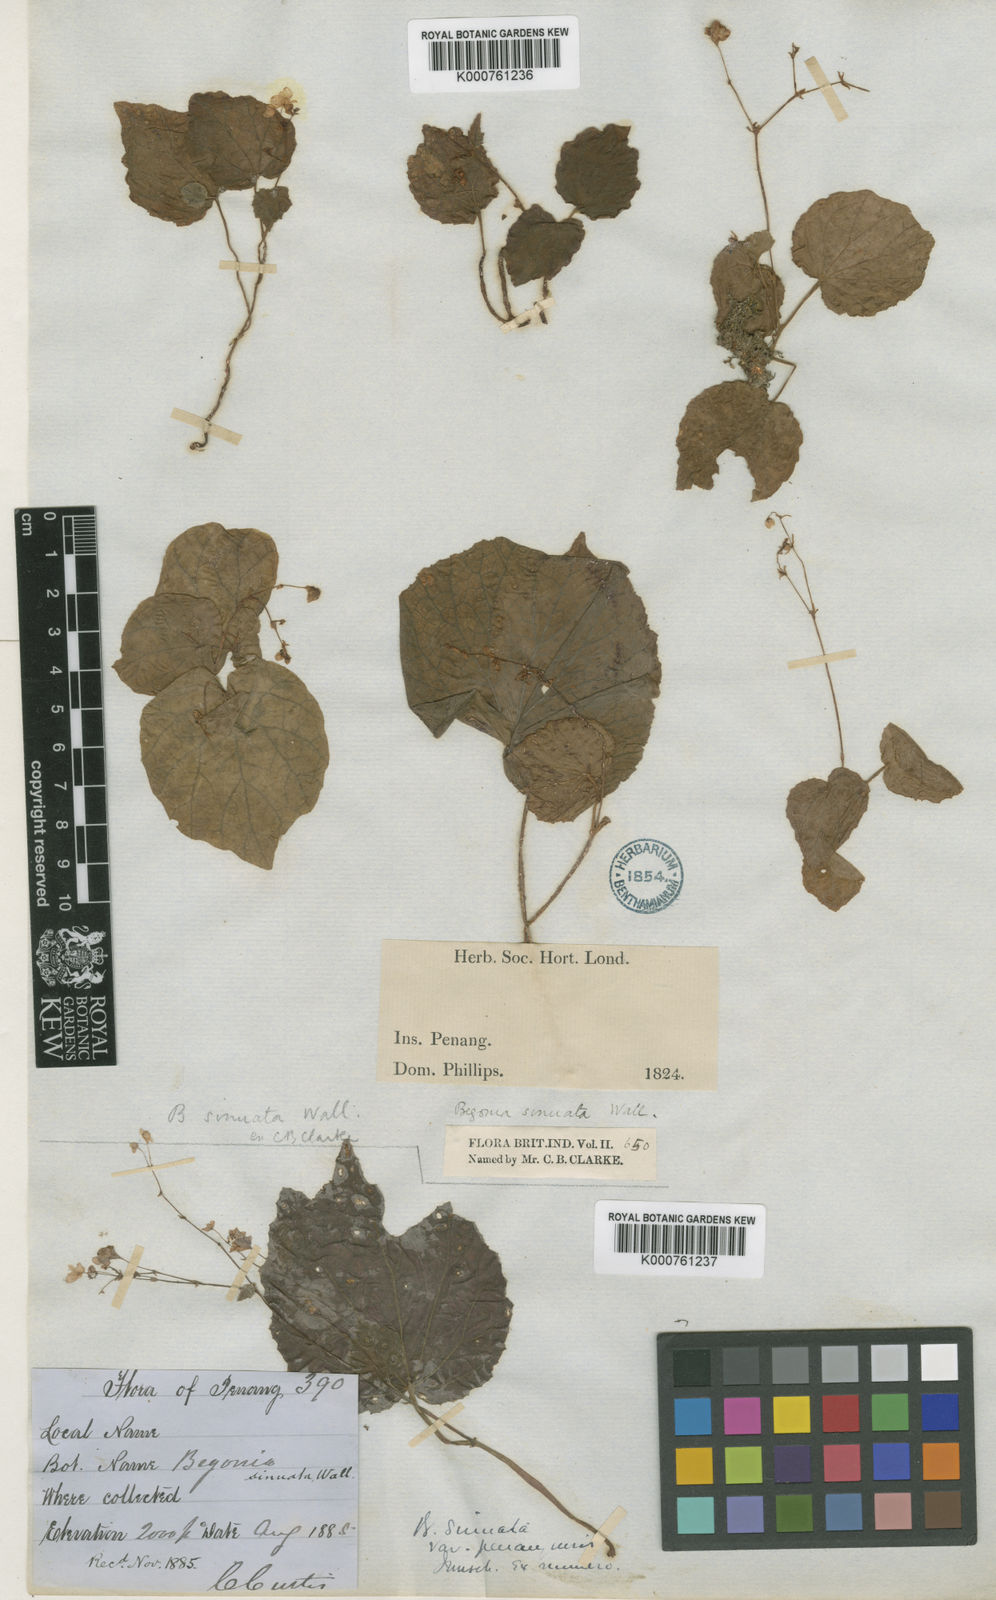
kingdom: Plantae
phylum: Tracheophyta
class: Magnoliopsida
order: Cucurbitales
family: Begoniaceae
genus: Begonia
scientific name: Begonia
